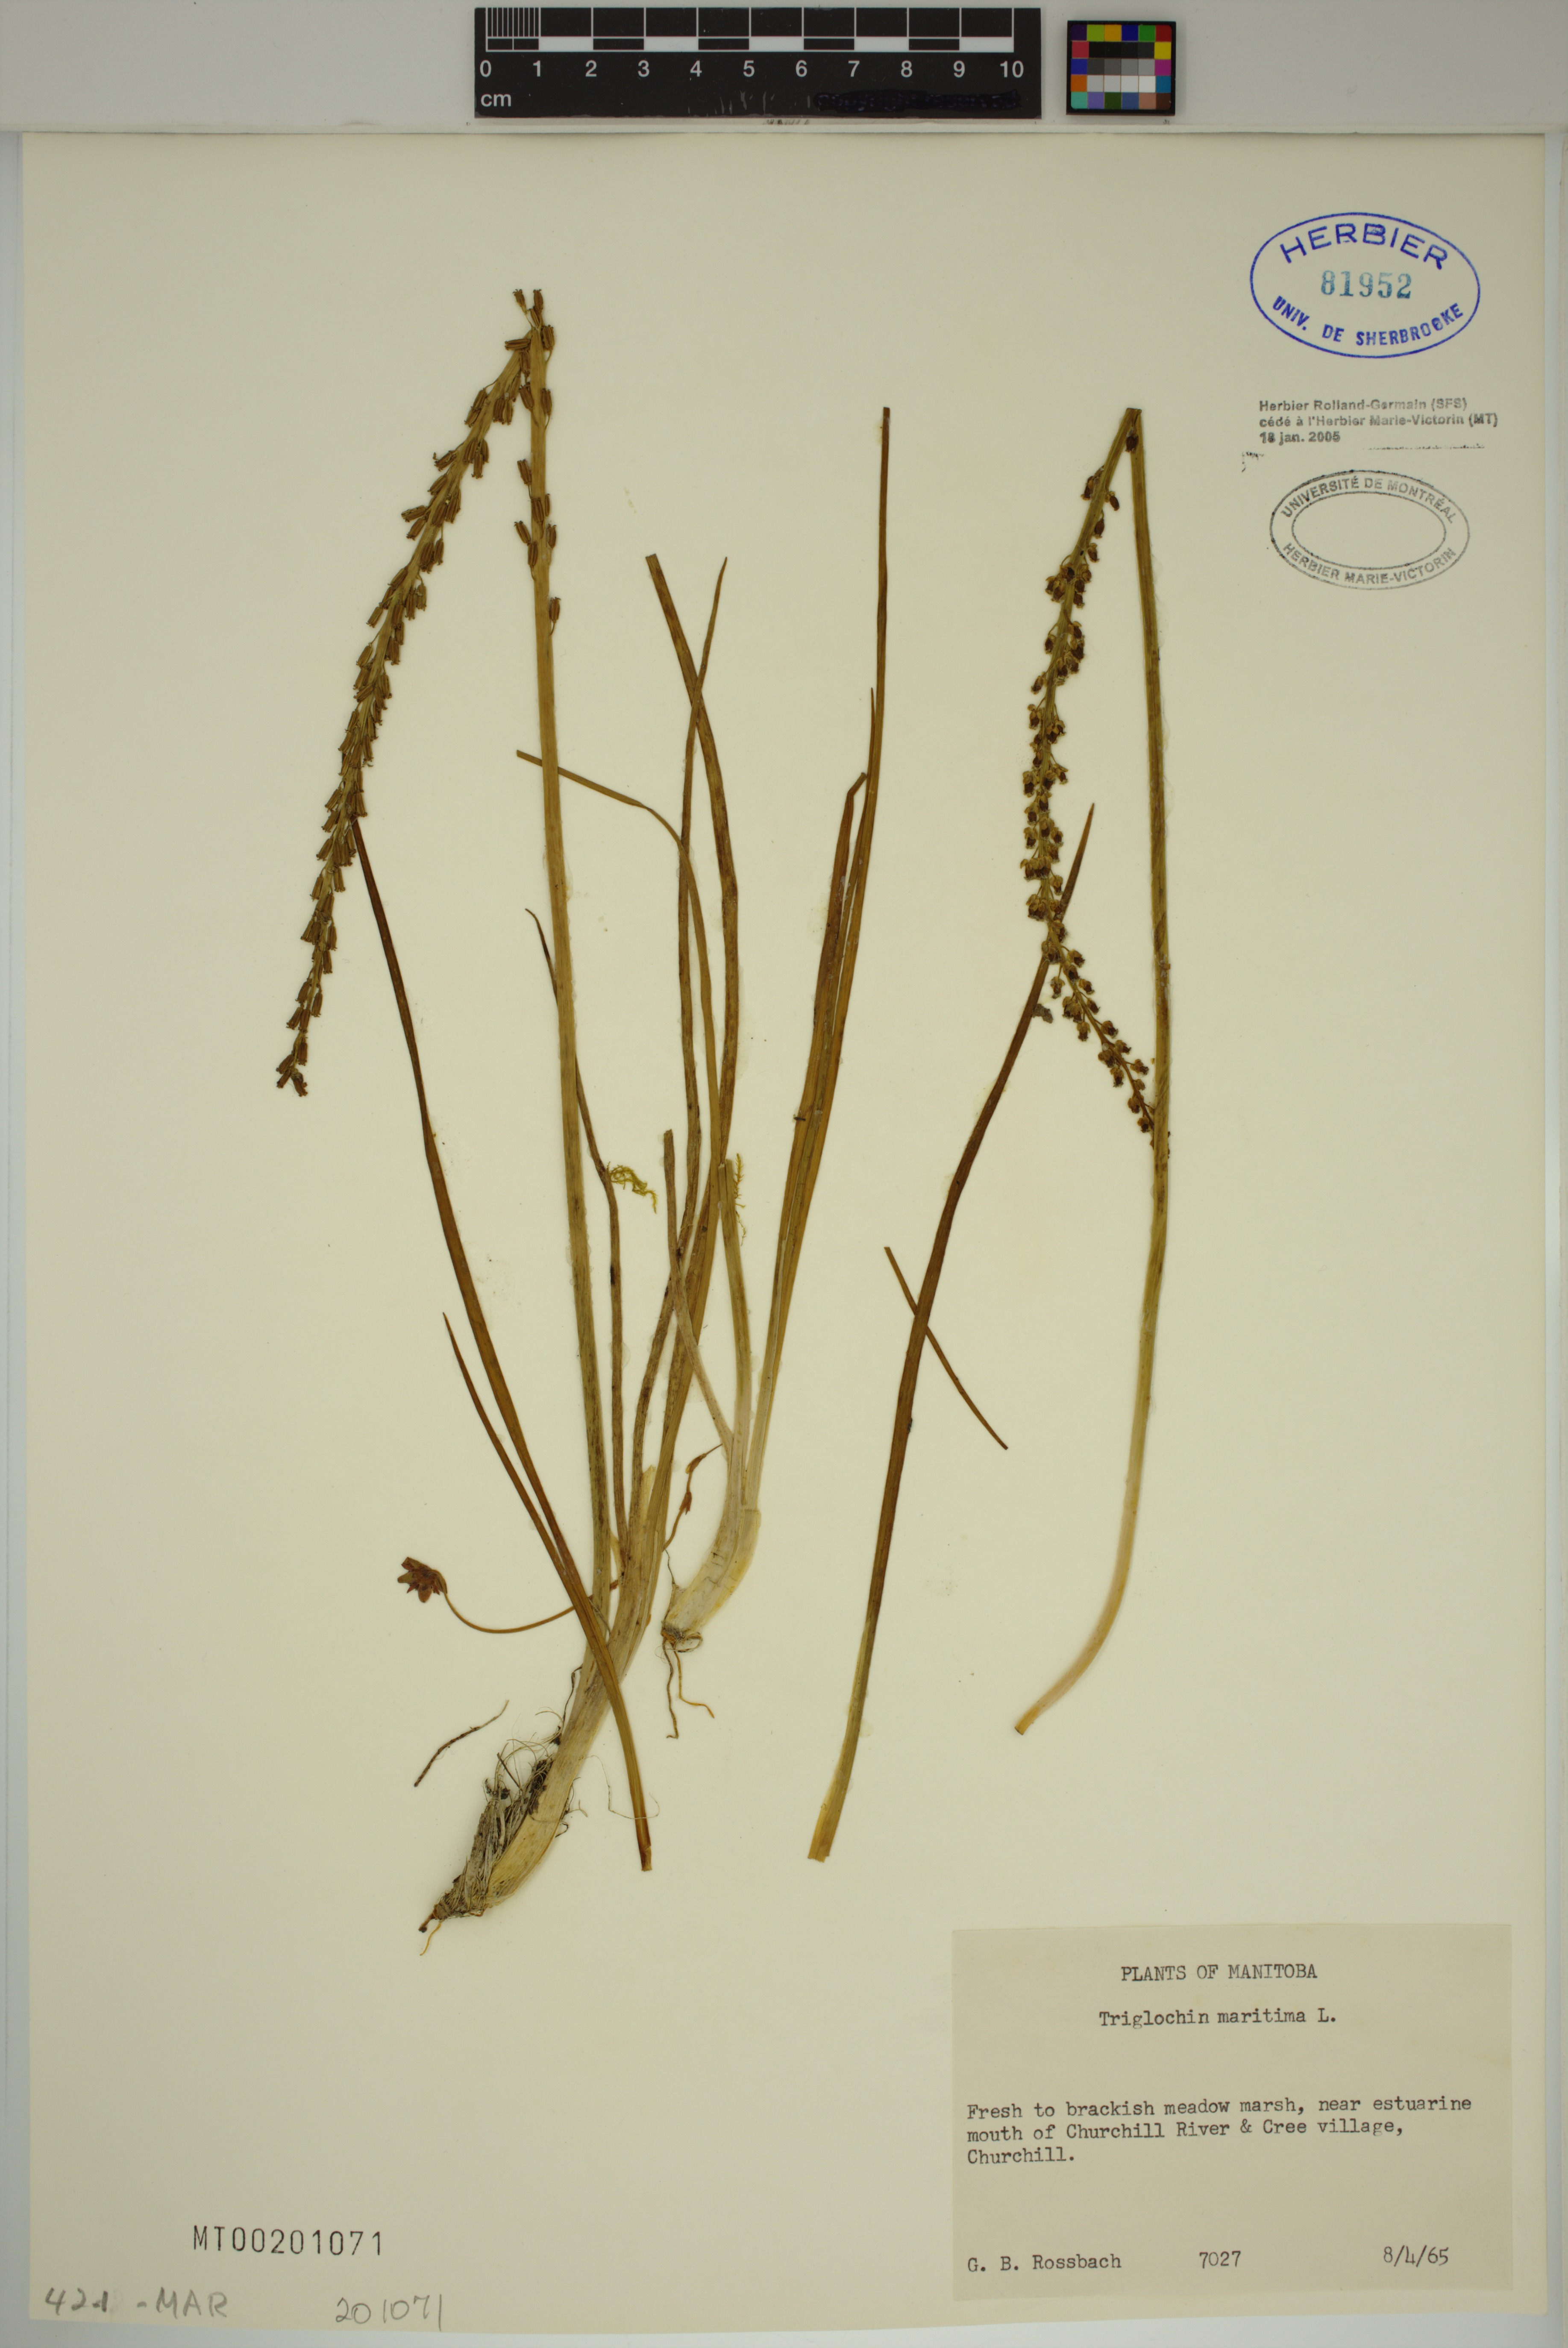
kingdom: Plantae
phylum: Tracheophyta
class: Liliopsida
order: Alismatales
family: Juncaginaceae
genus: Triglochin
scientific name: Triglochin maritima
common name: Sea arrowgrass
